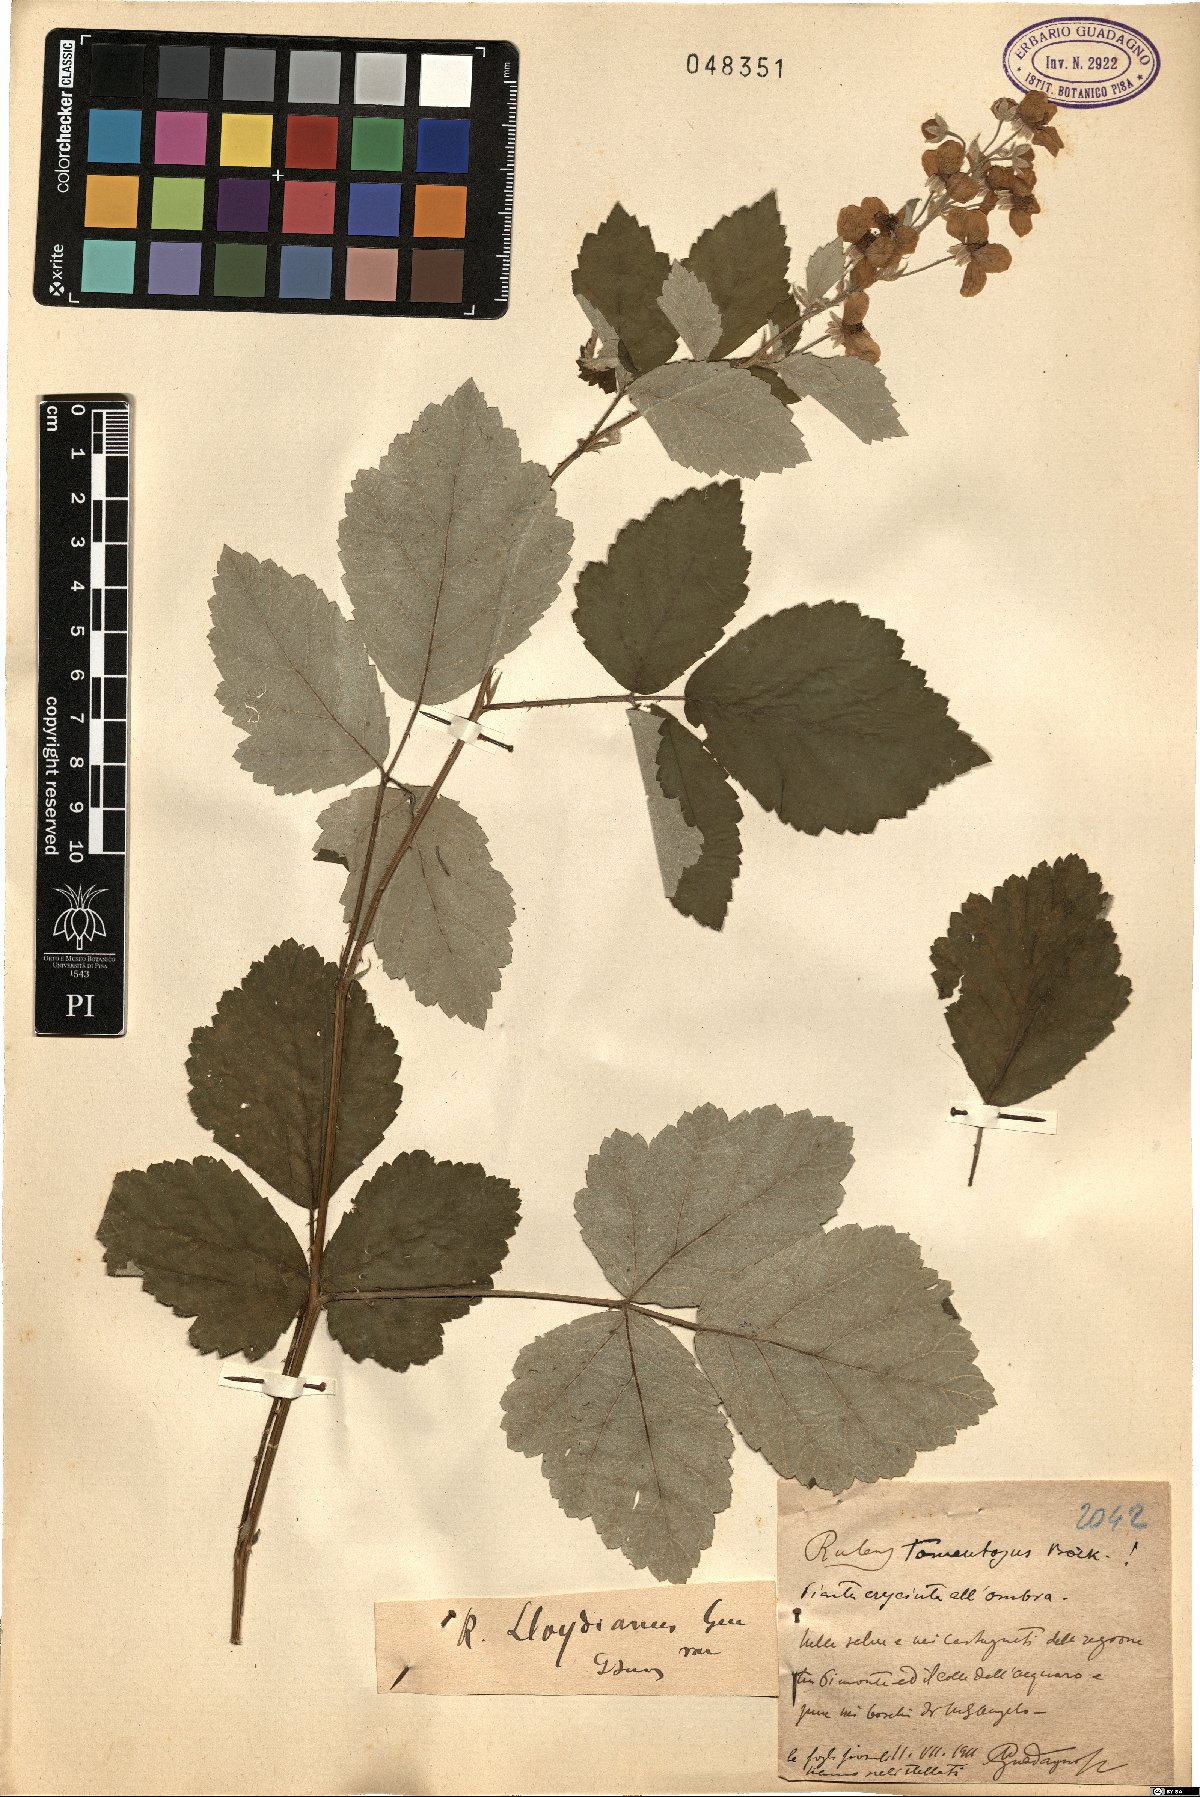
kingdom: Plantae
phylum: Tracheophyta
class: Magnoliopsida
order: Rosales
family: Rosaceae
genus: Rubus
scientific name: Rubus aetnicus
